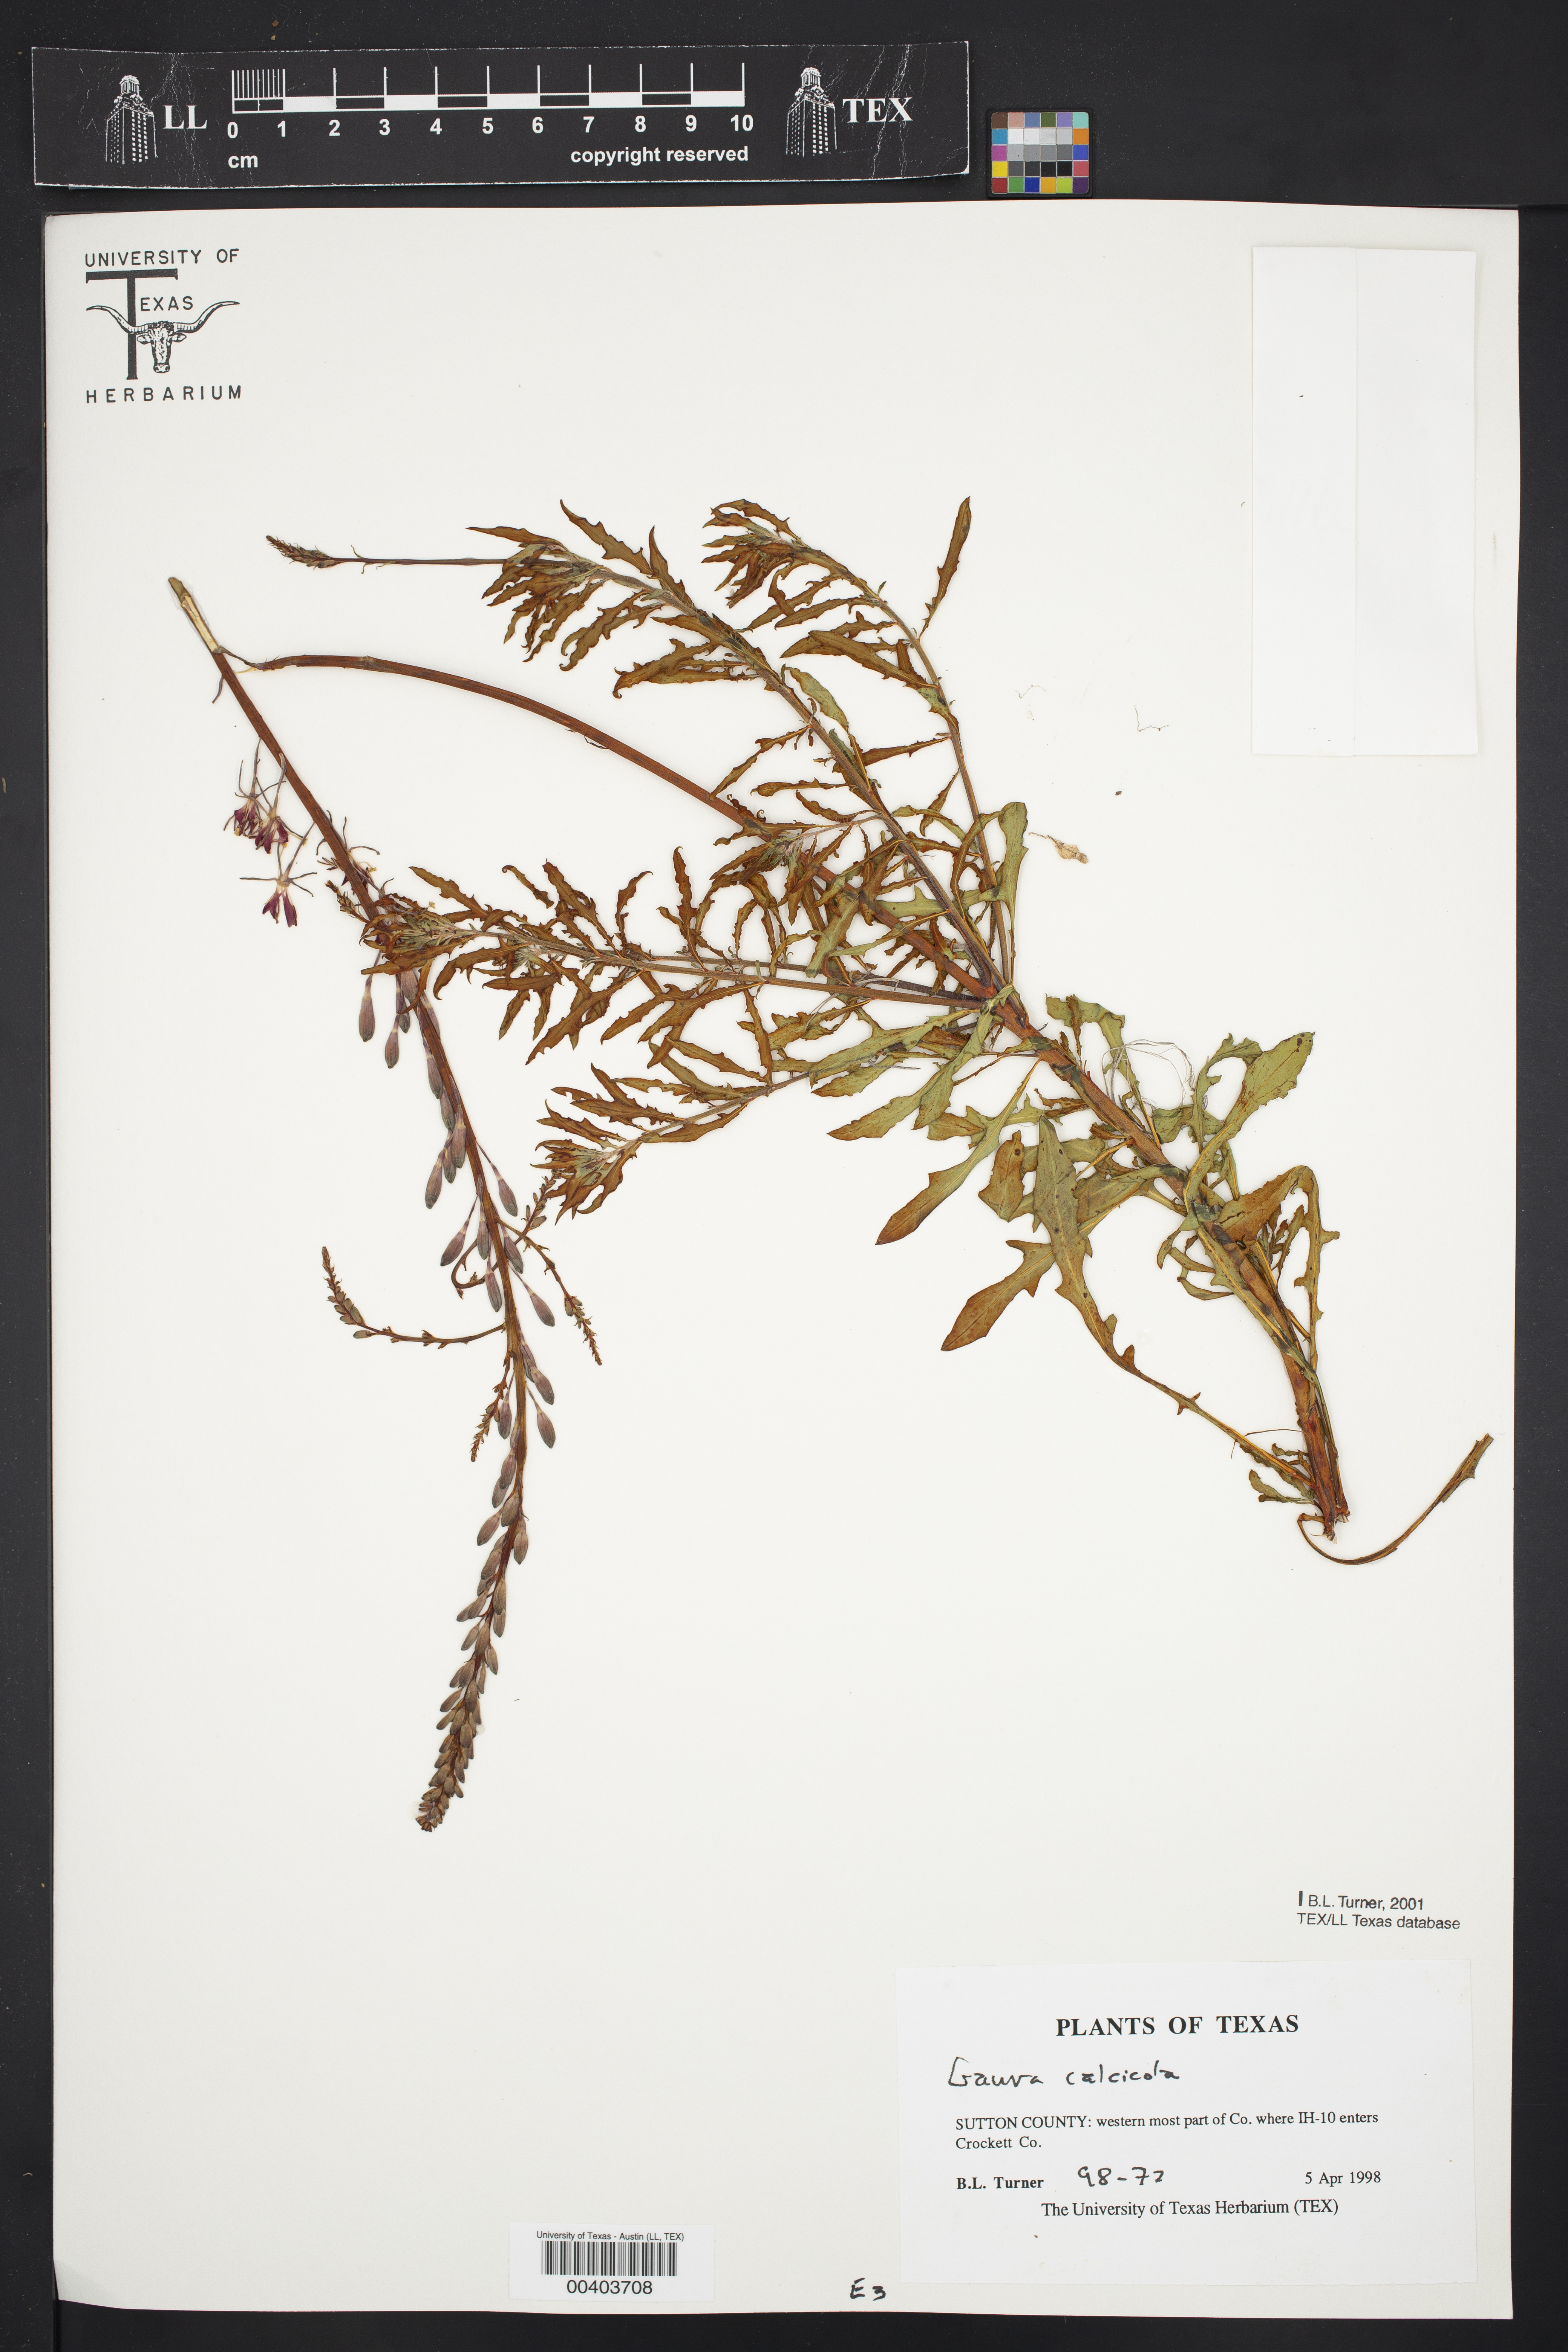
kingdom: Plantae
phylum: Tracheophyta
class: Magnoliopsida
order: Myrtales
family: Onagraceae
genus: Oenothera
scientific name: Oenothera calcicola
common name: Texas beeblossom
